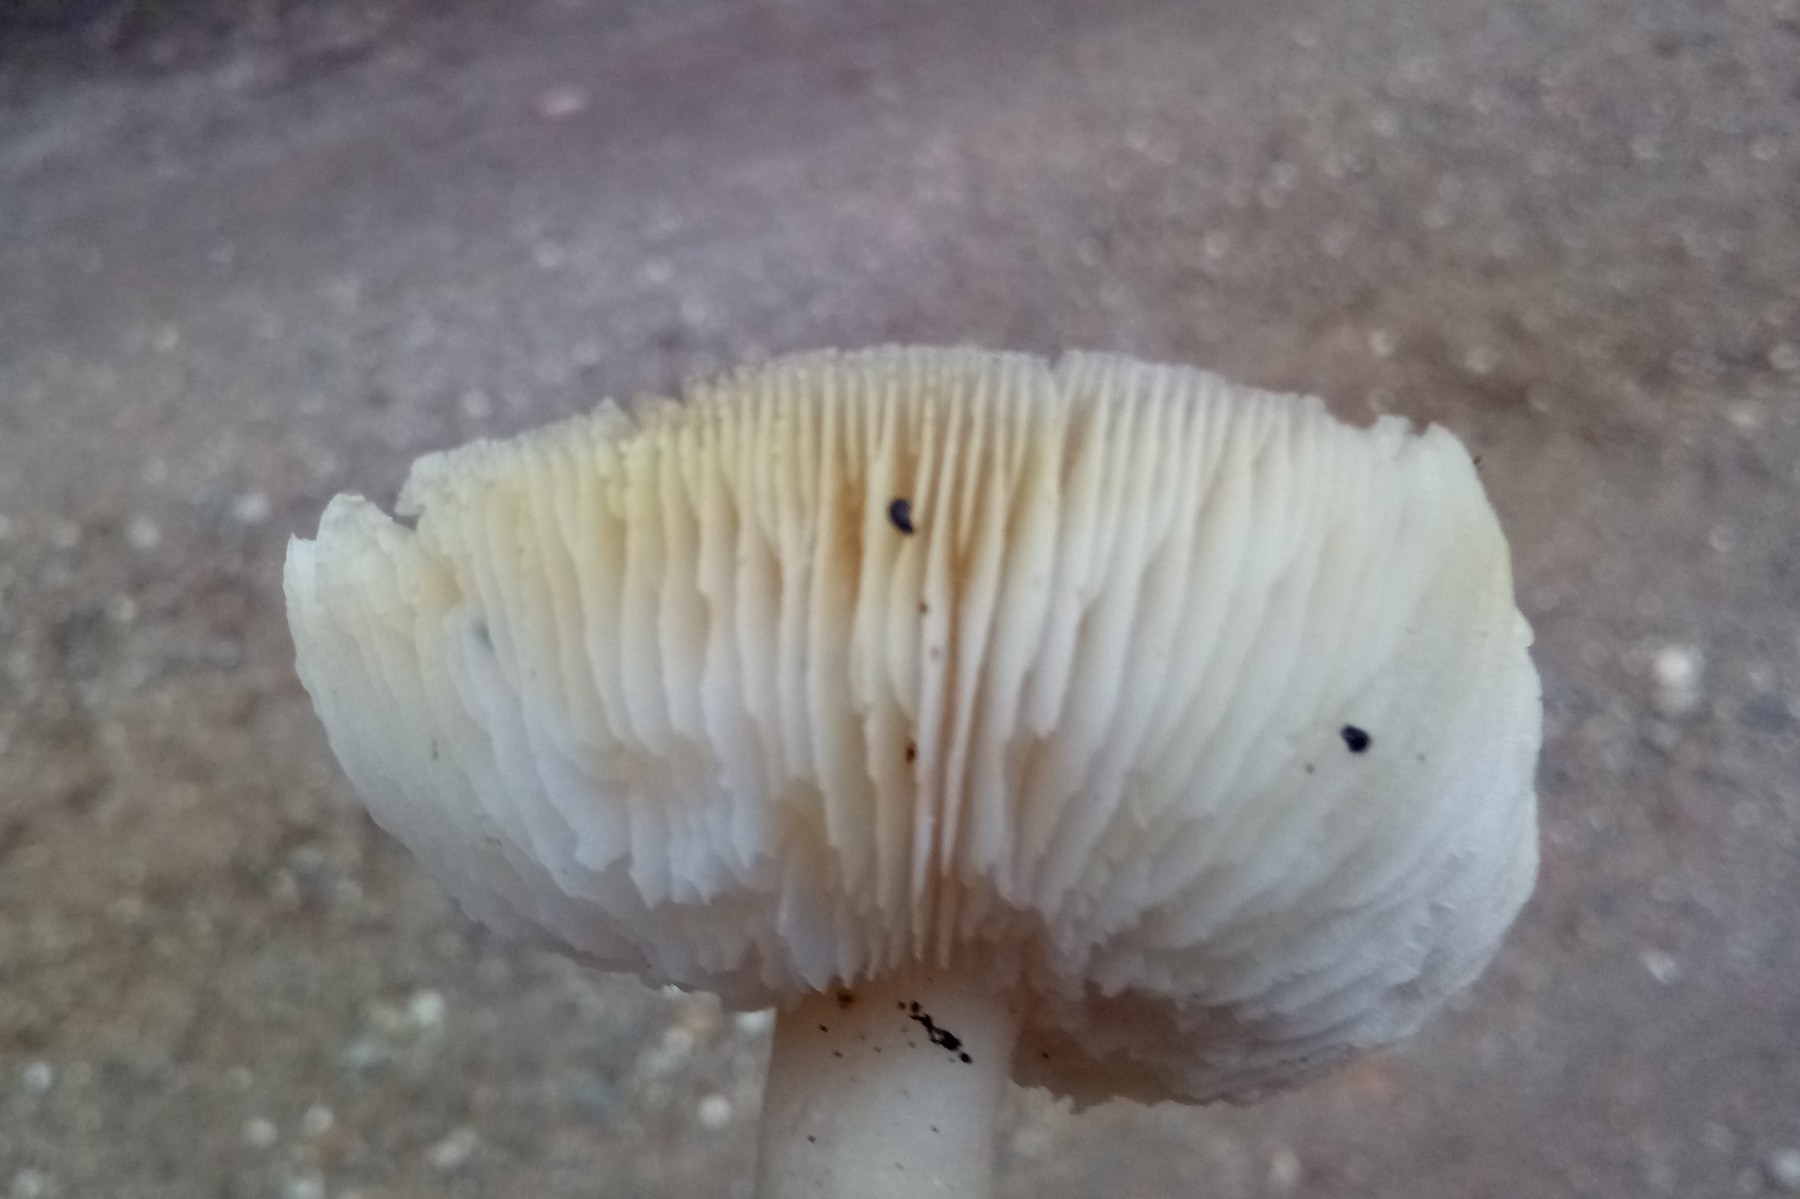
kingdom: Fungi
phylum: Basidiomycota
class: Agaricomycetes
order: Agaricales
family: Tricholomataceae
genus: Tricholoma
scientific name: Tricholoma scalpturatum
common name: gulplettet ridderhat
